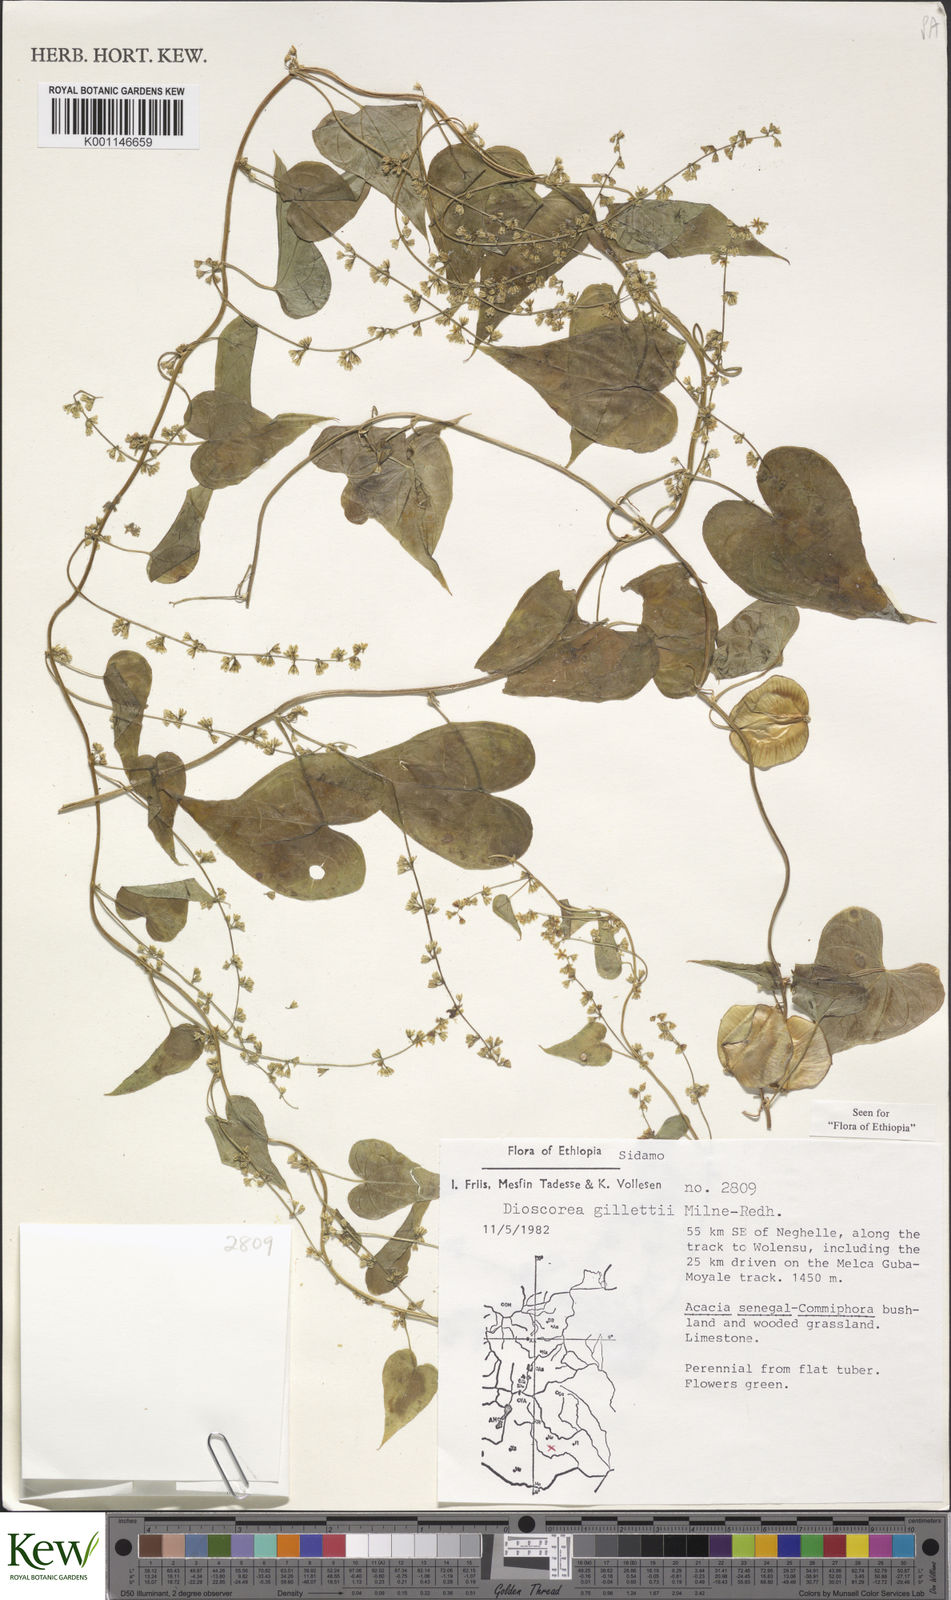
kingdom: Plantae
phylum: Tracheophyta
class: Liliopsida
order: Dioscoreales
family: Dioscoreaceae
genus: Dioscorea
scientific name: Dioscorea gillettii
